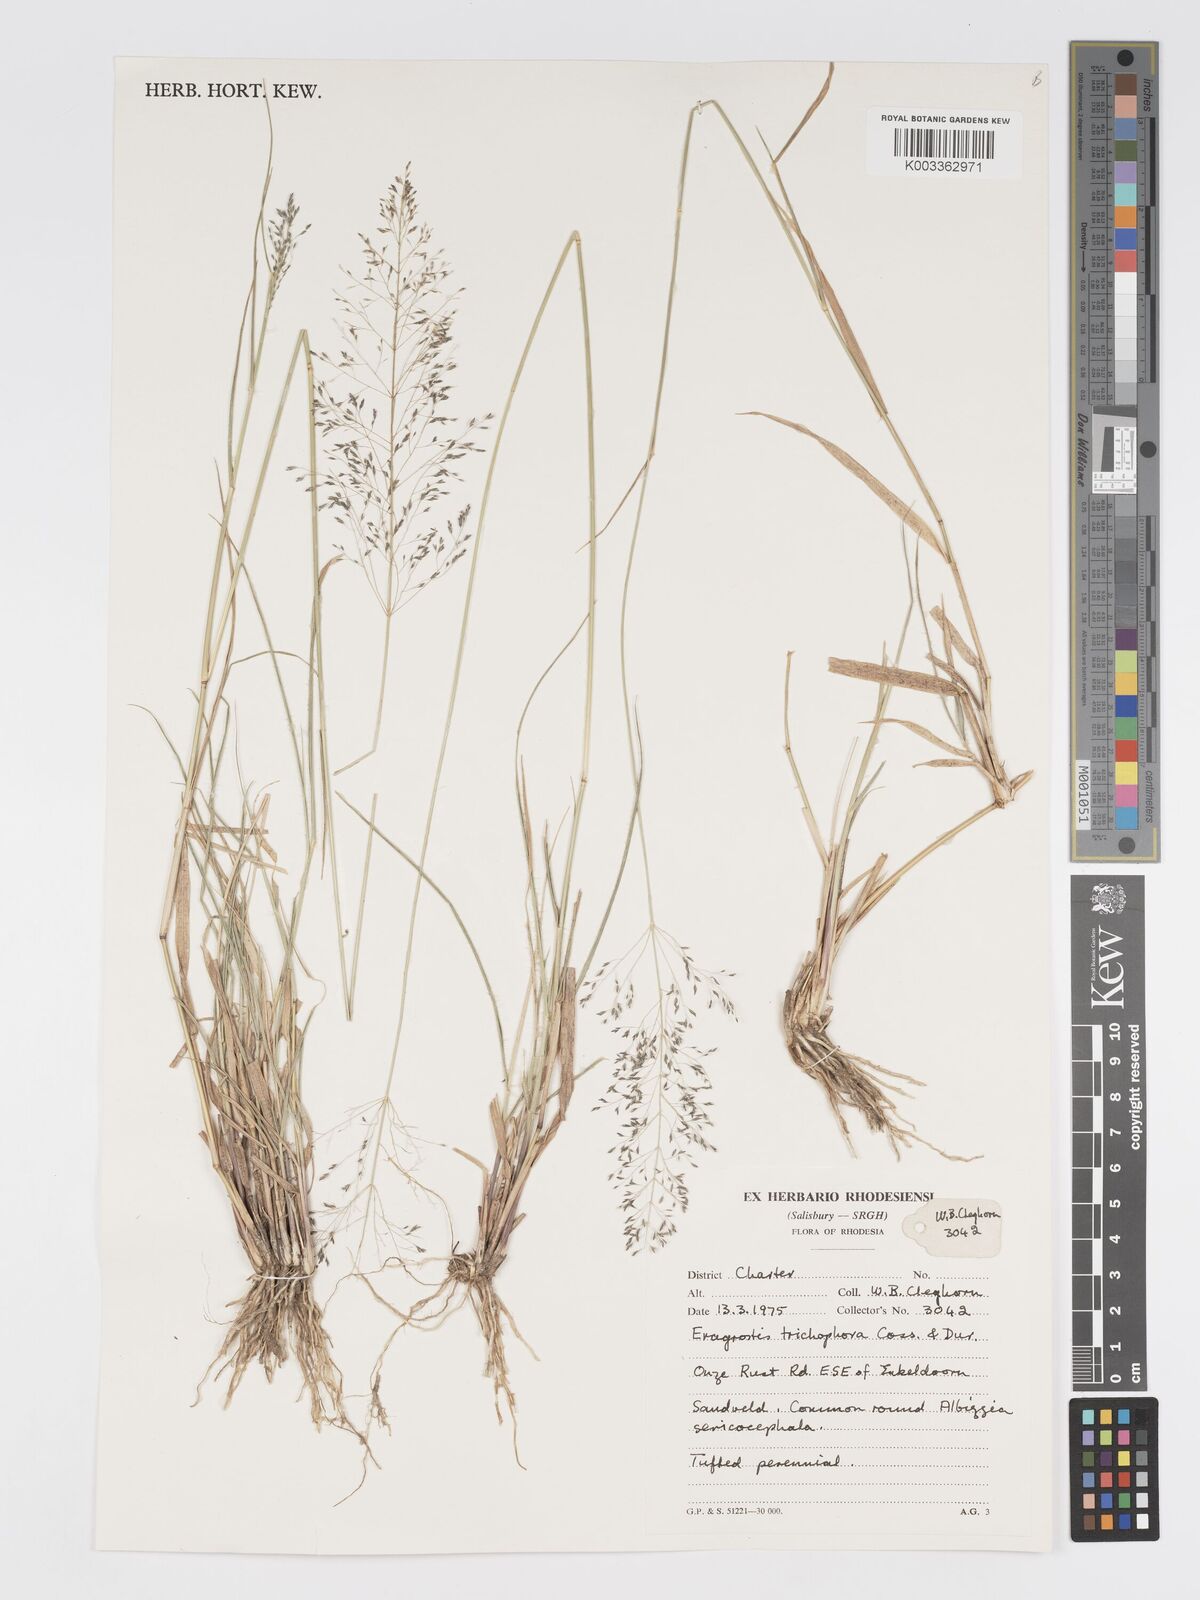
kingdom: Plantae
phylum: Tracheophyta
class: Liliopsida
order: Poales
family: Poaceae
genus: Eragrostis
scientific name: Eragrostis cylindriflora
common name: Cylinderflower lovegrass
